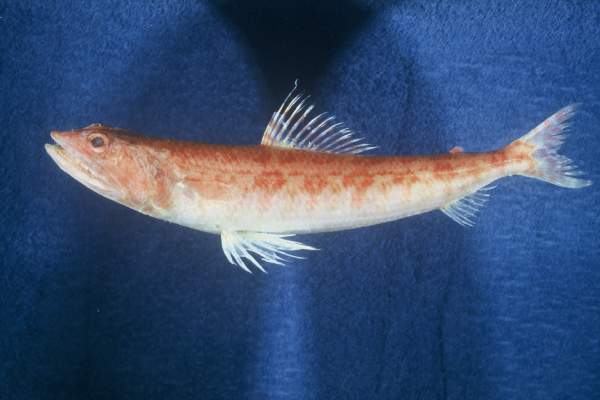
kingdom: Animalia
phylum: Chordata
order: Aulopiformes
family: Synodontidae
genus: Synodus
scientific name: Synodus variegatus
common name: Variegated lizardfish
